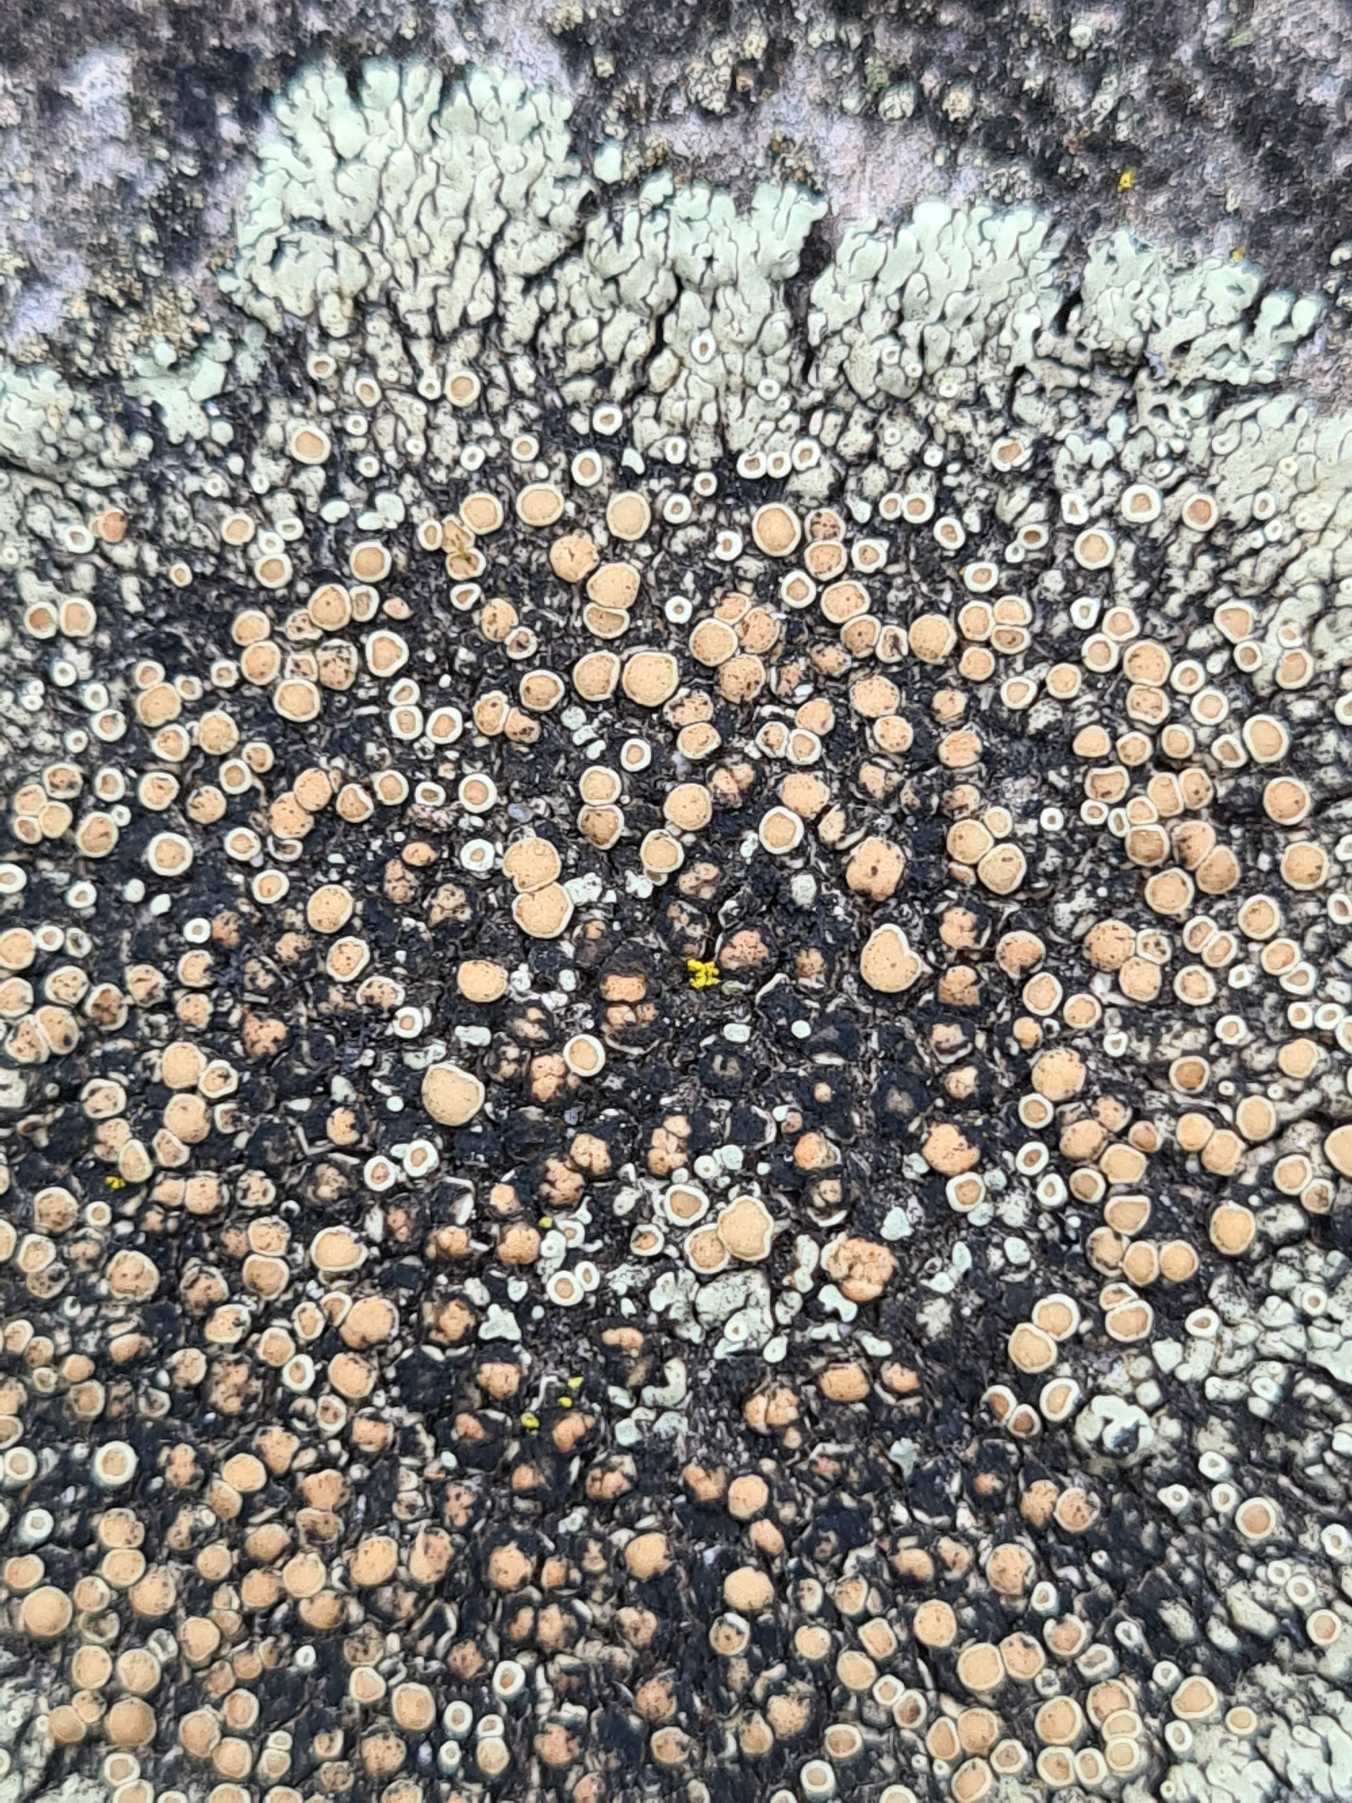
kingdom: Fungi
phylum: Ascomycota
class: Lecanoromycetes
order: Lecanorales
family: Lecanoraceae
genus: Protoparmeliopsis
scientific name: Protoparmeliopsis muralis
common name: Randfliget kantskivelav
